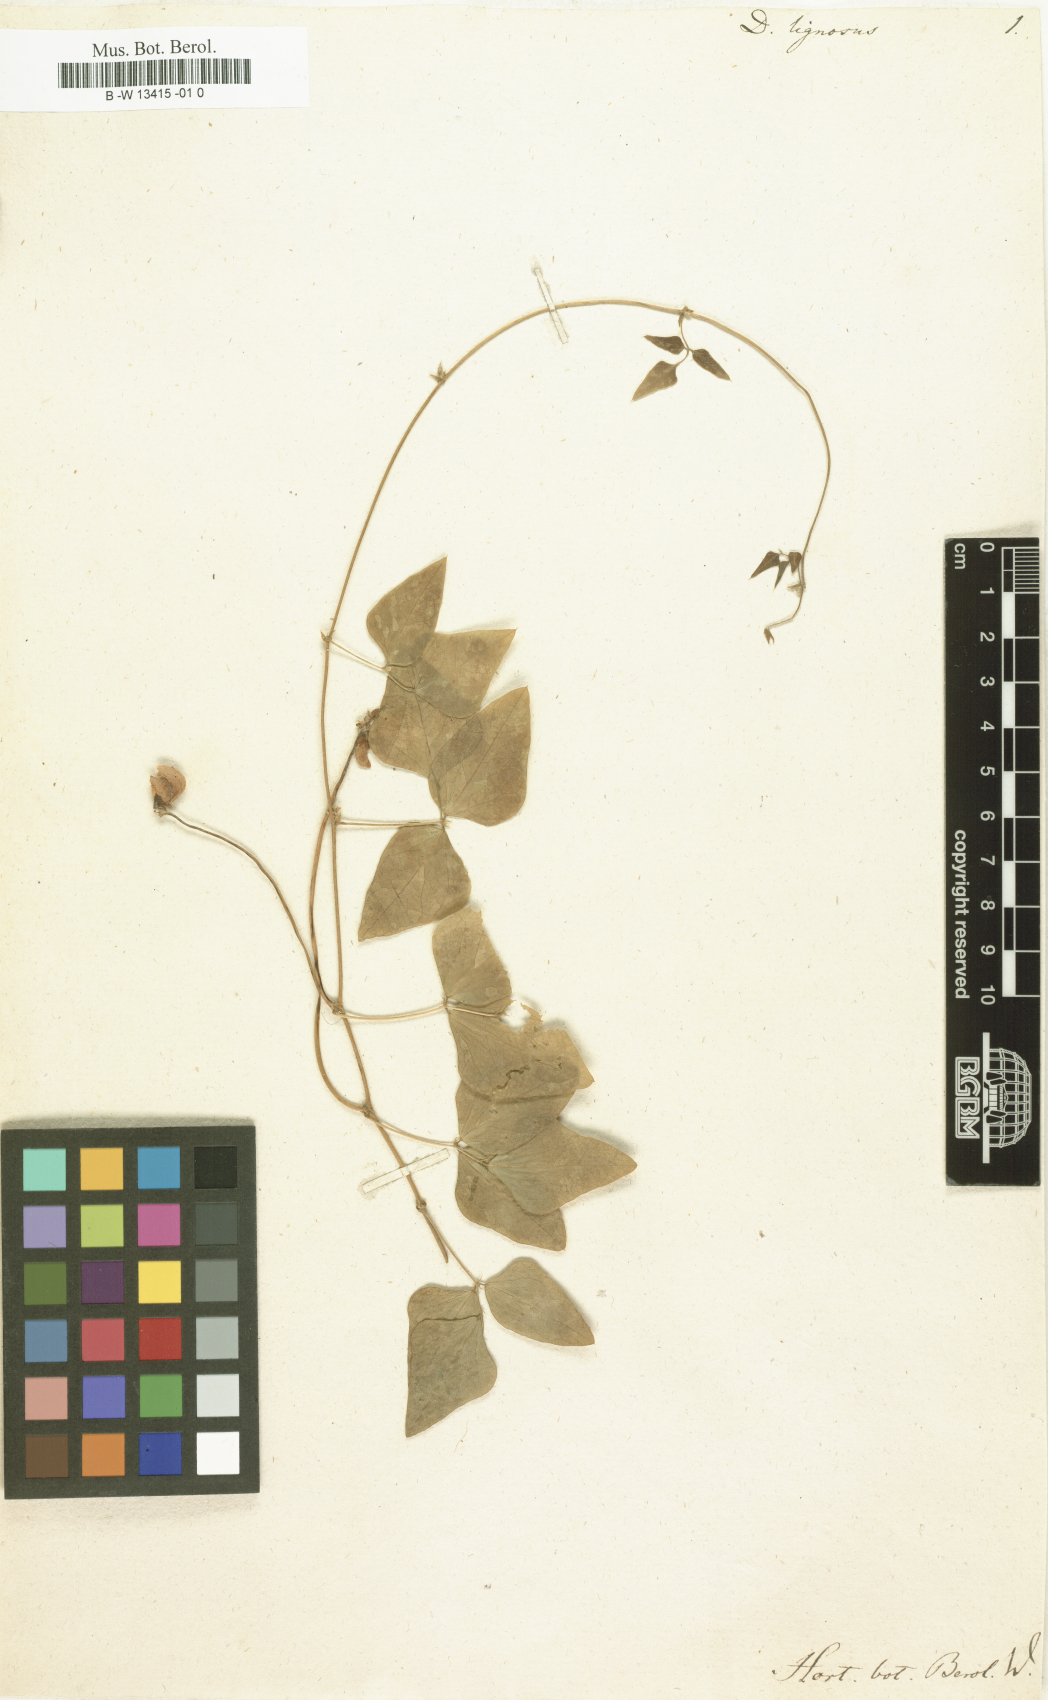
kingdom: Plantae
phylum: Tracheophyta
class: Magnoliopsida
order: Fabales
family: Fabaceae
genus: Dipogon
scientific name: Dipogon lignosus
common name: Okie bean
